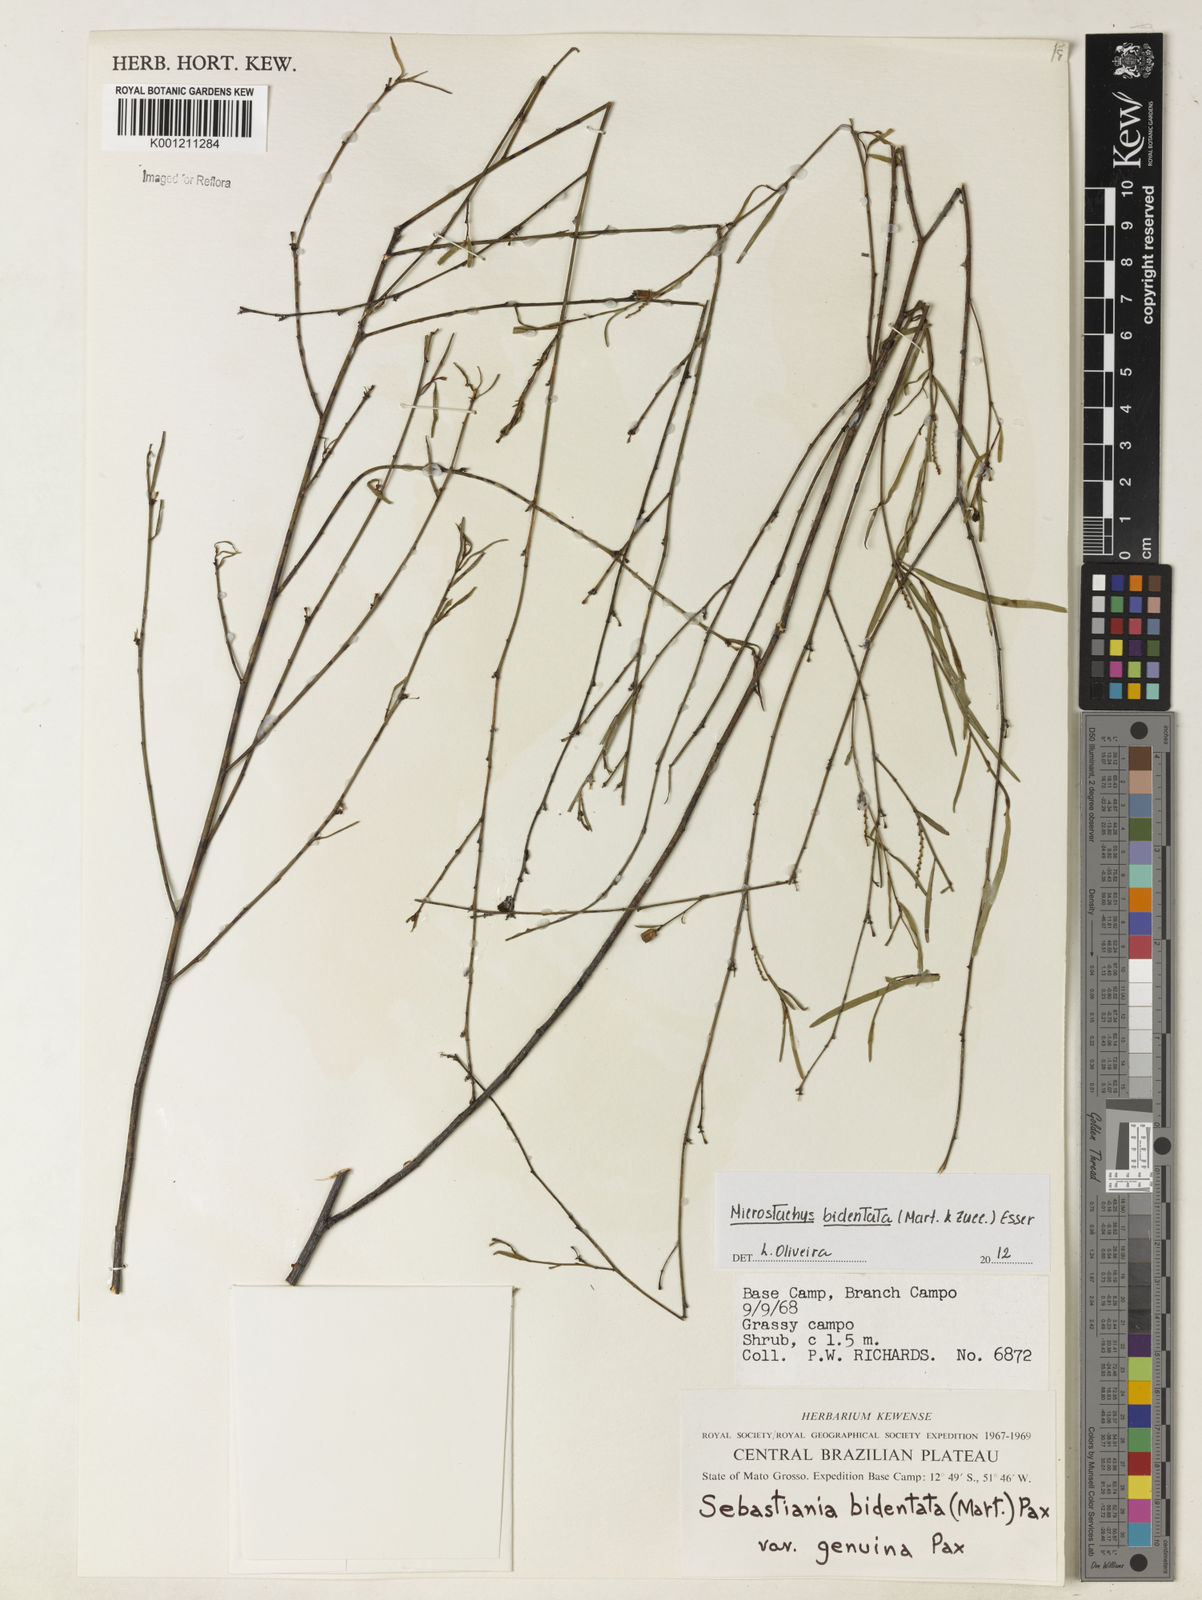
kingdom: Plantae
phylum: Tracheophyta
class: Magnoliopsida
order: Malpighiales
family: Euphorbiaceae
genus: Microstachys
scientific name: Microstachys bidentata
